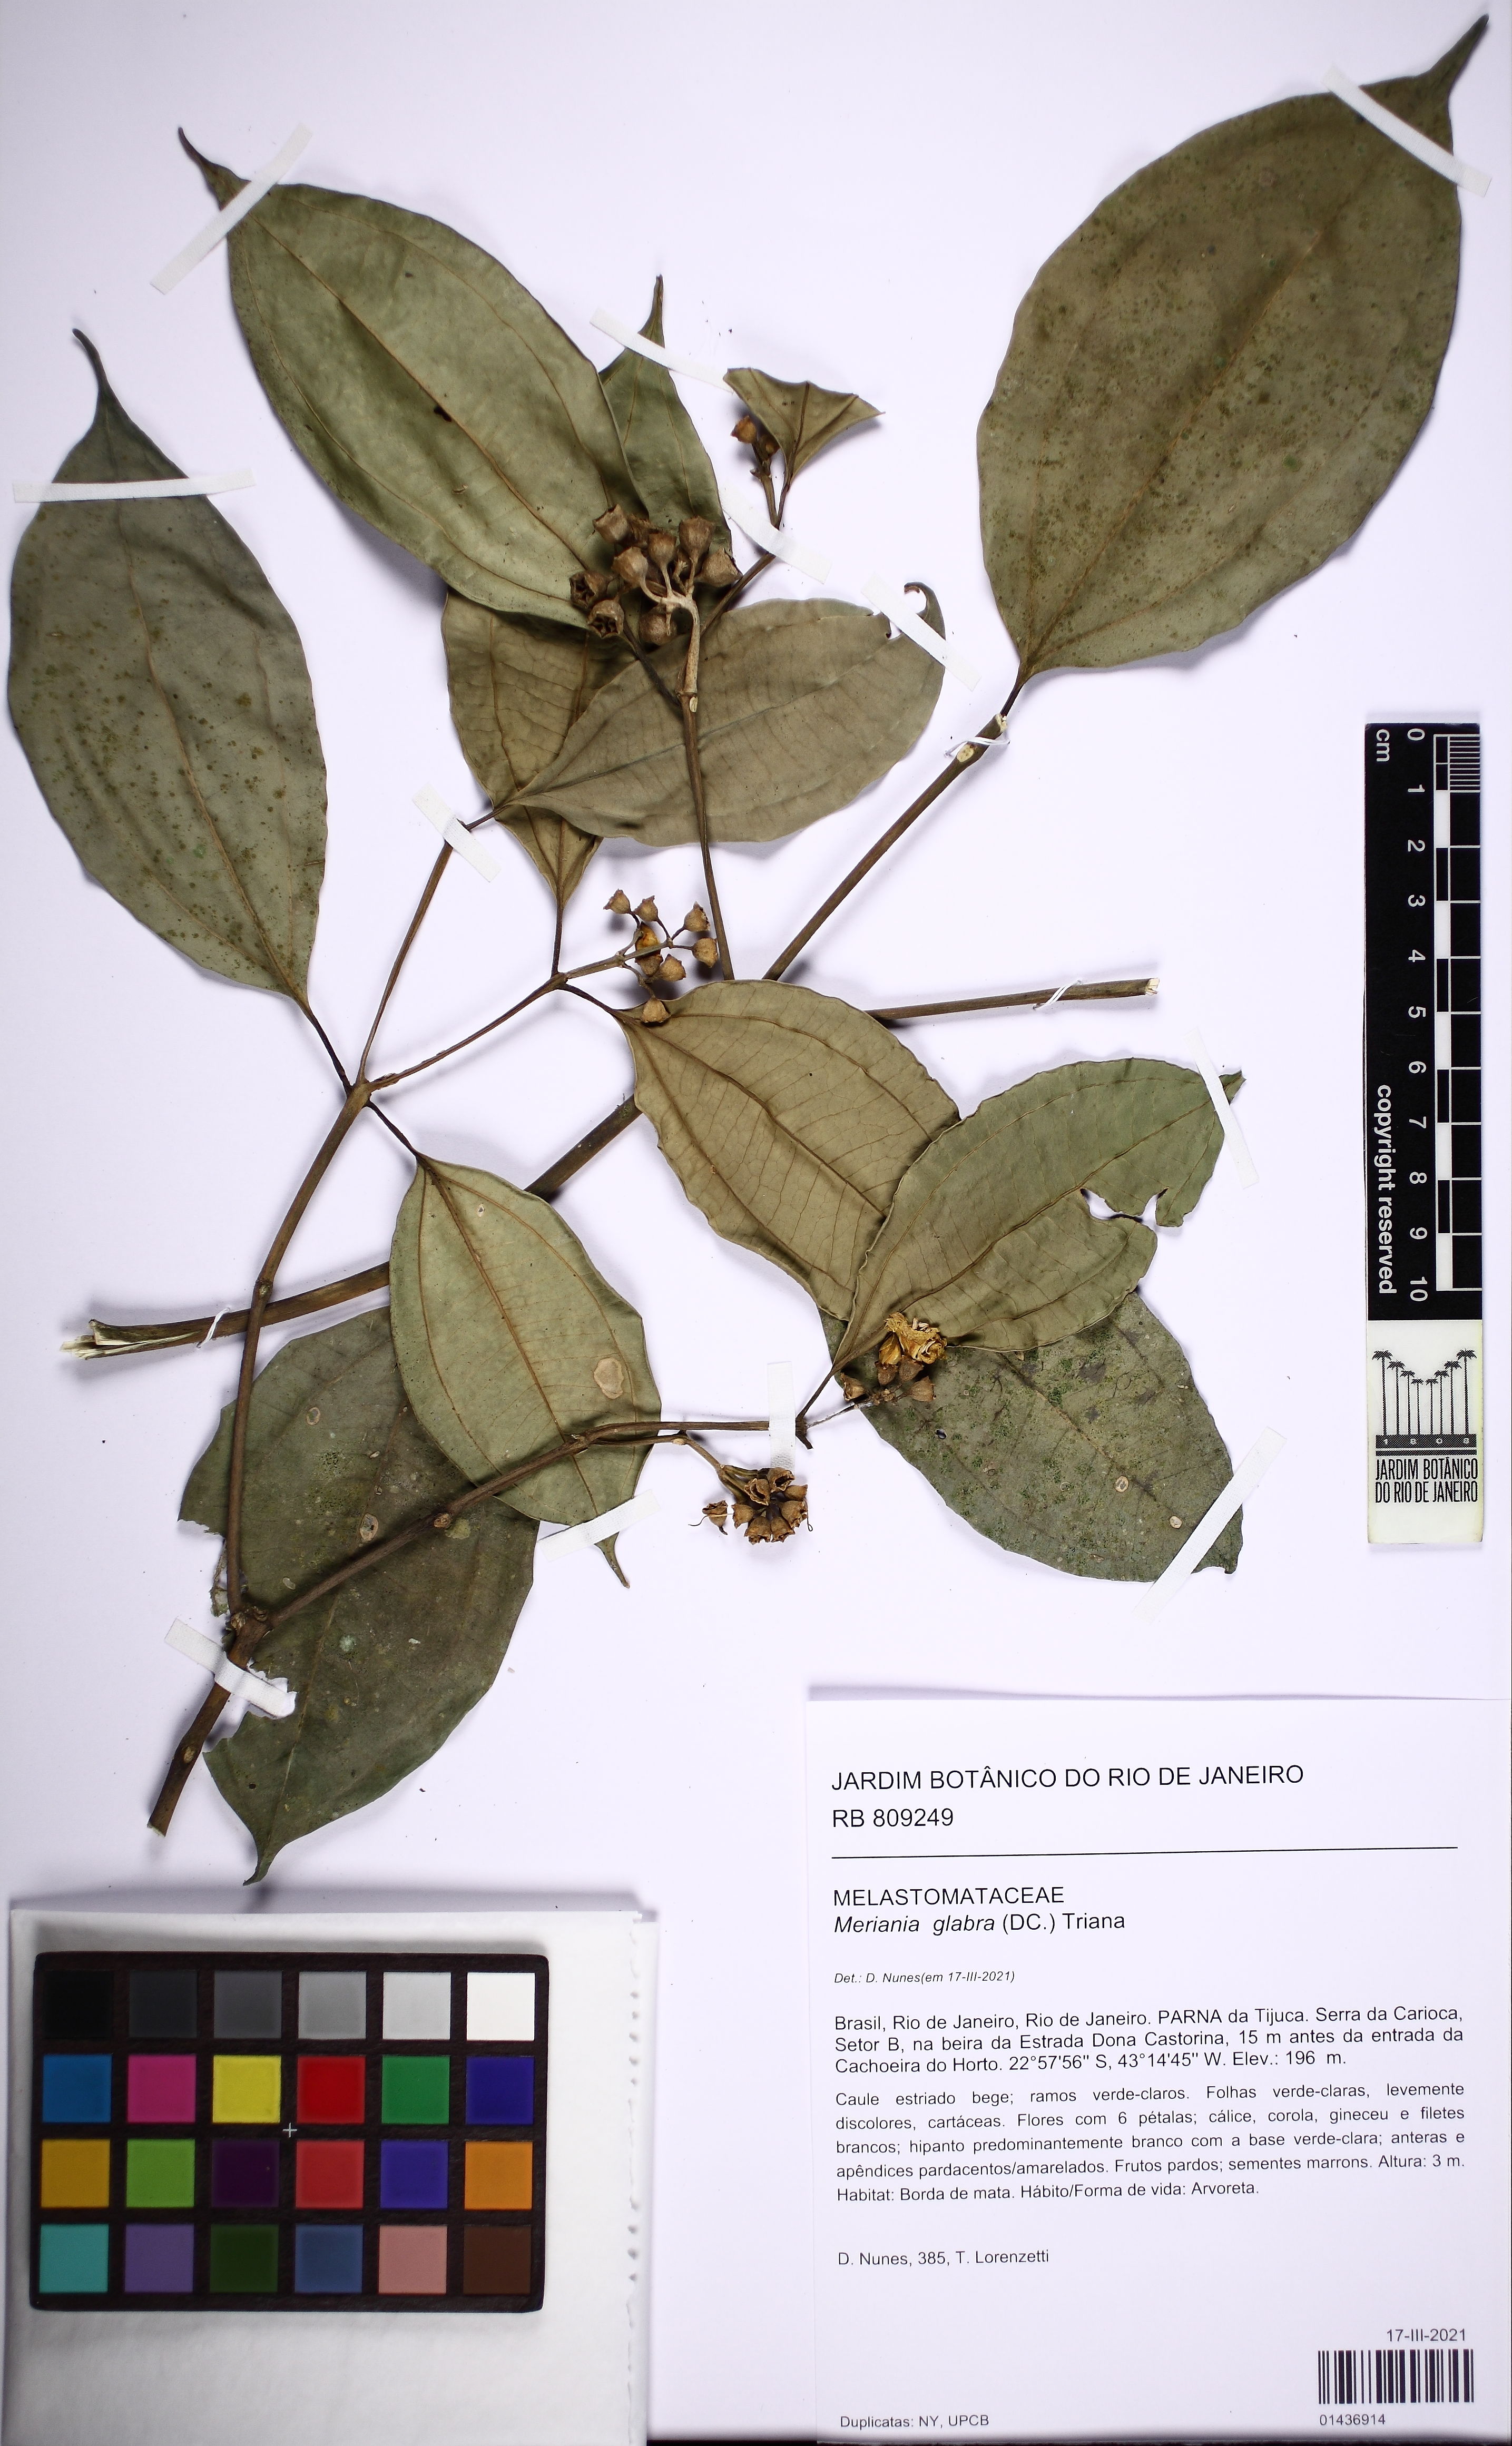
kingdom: Plantae
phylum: Tracheophyta
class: Magnoliopsida
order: Myrtales
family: Melastomataceae
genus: Meriania
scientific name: Meriania glabra
